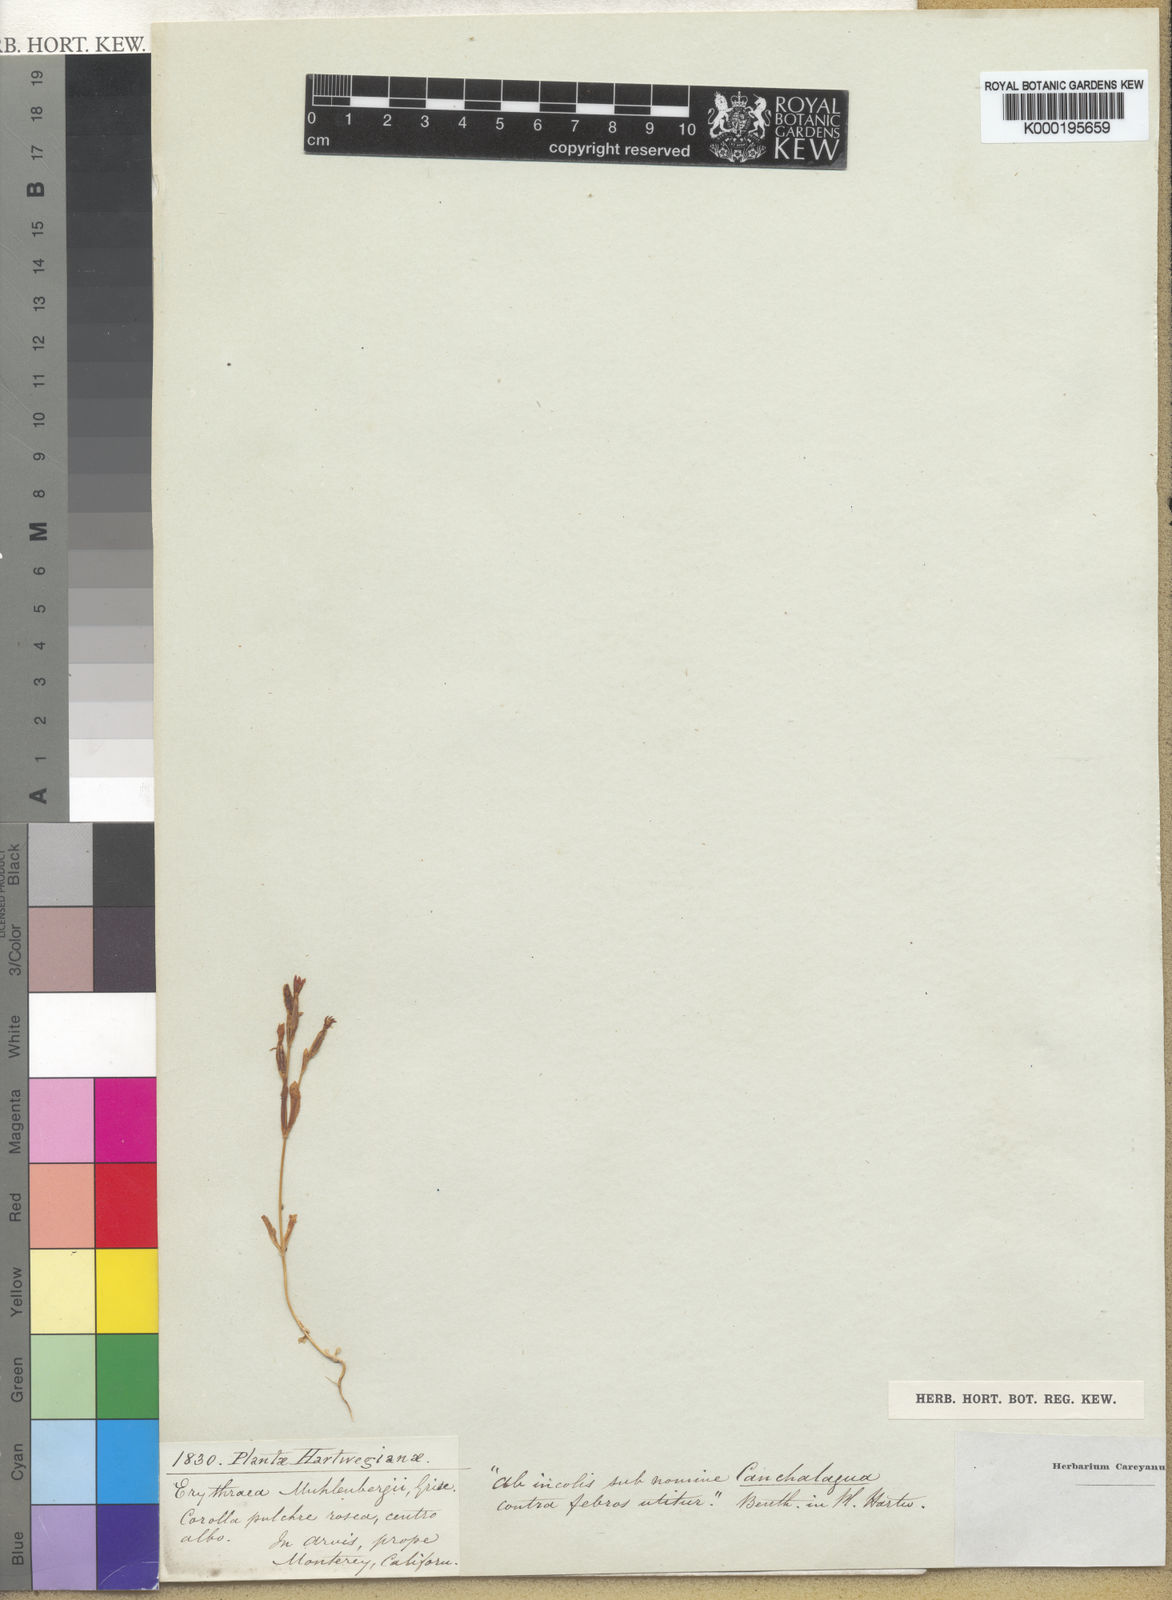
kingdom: Plantae
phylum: Tracheophyta
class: Magnoliopsida
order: Gentianales
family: Gentianaceae
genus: Centaurium
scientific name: Centaurium
